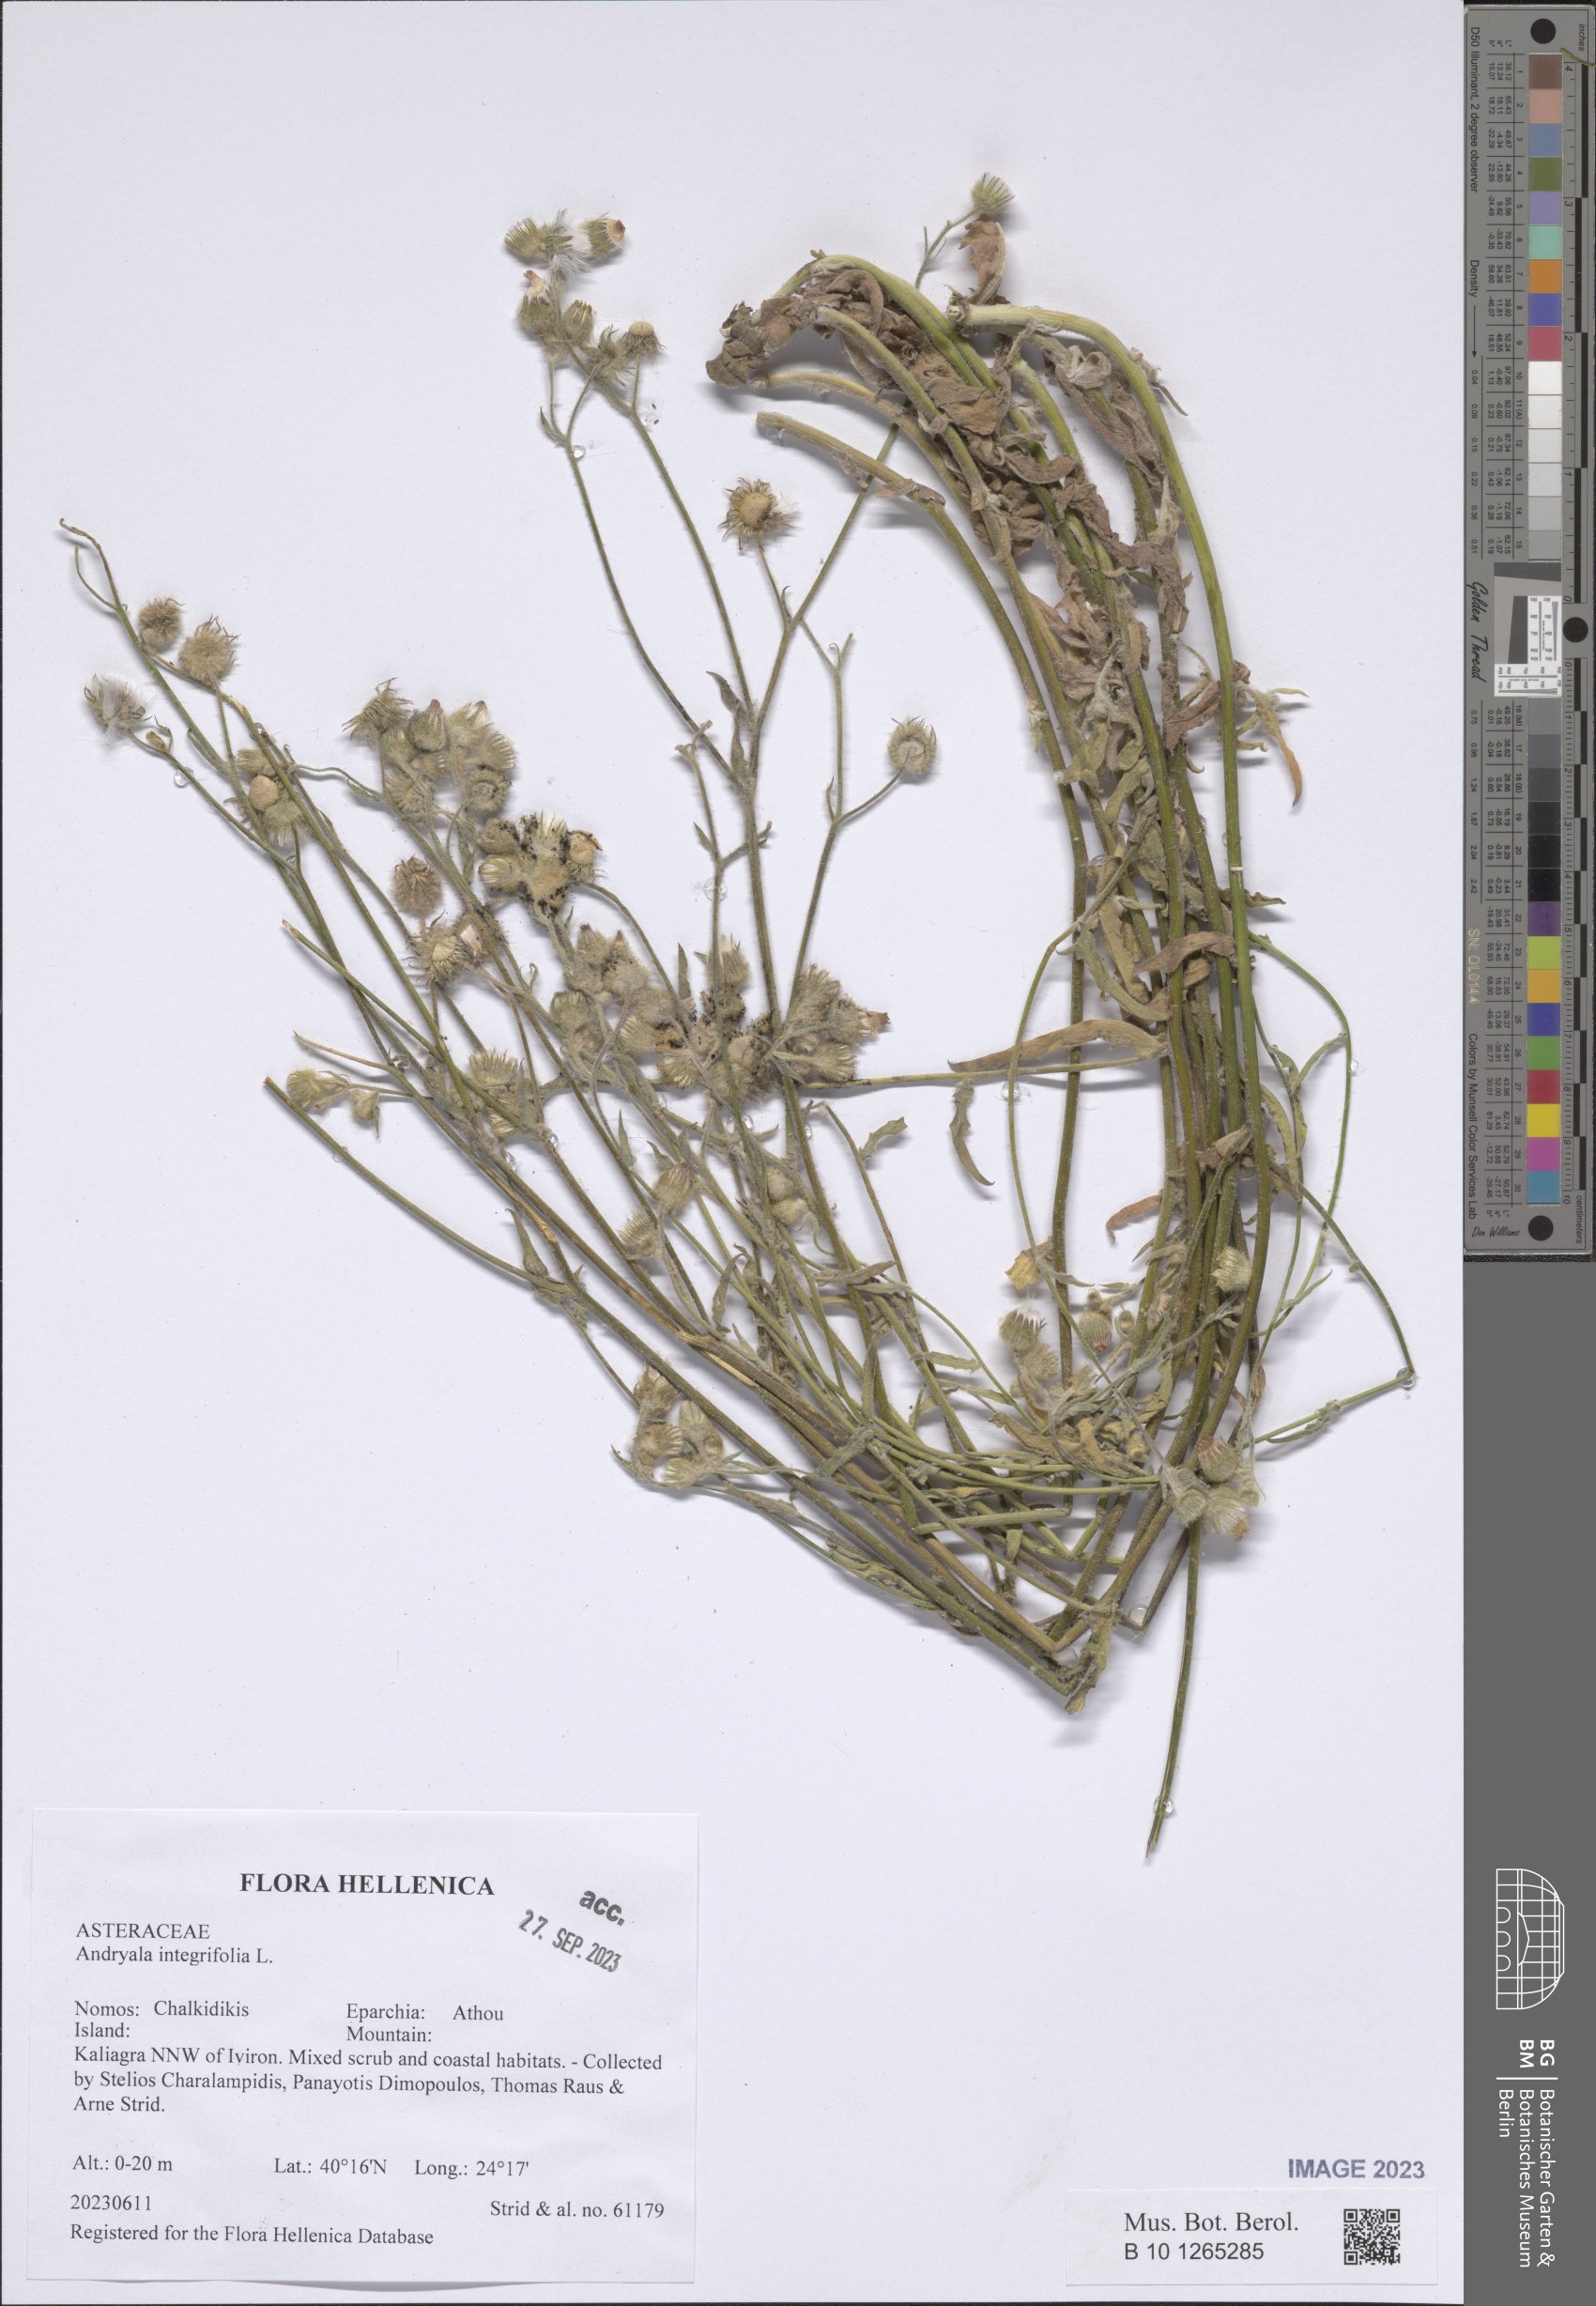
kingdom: Plantae
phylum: Tracheophyta
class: Magnoliopsida
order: Asterales
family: Asteraceae
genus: Andryala
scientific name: Andryala integrifolia
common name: Common andryala
